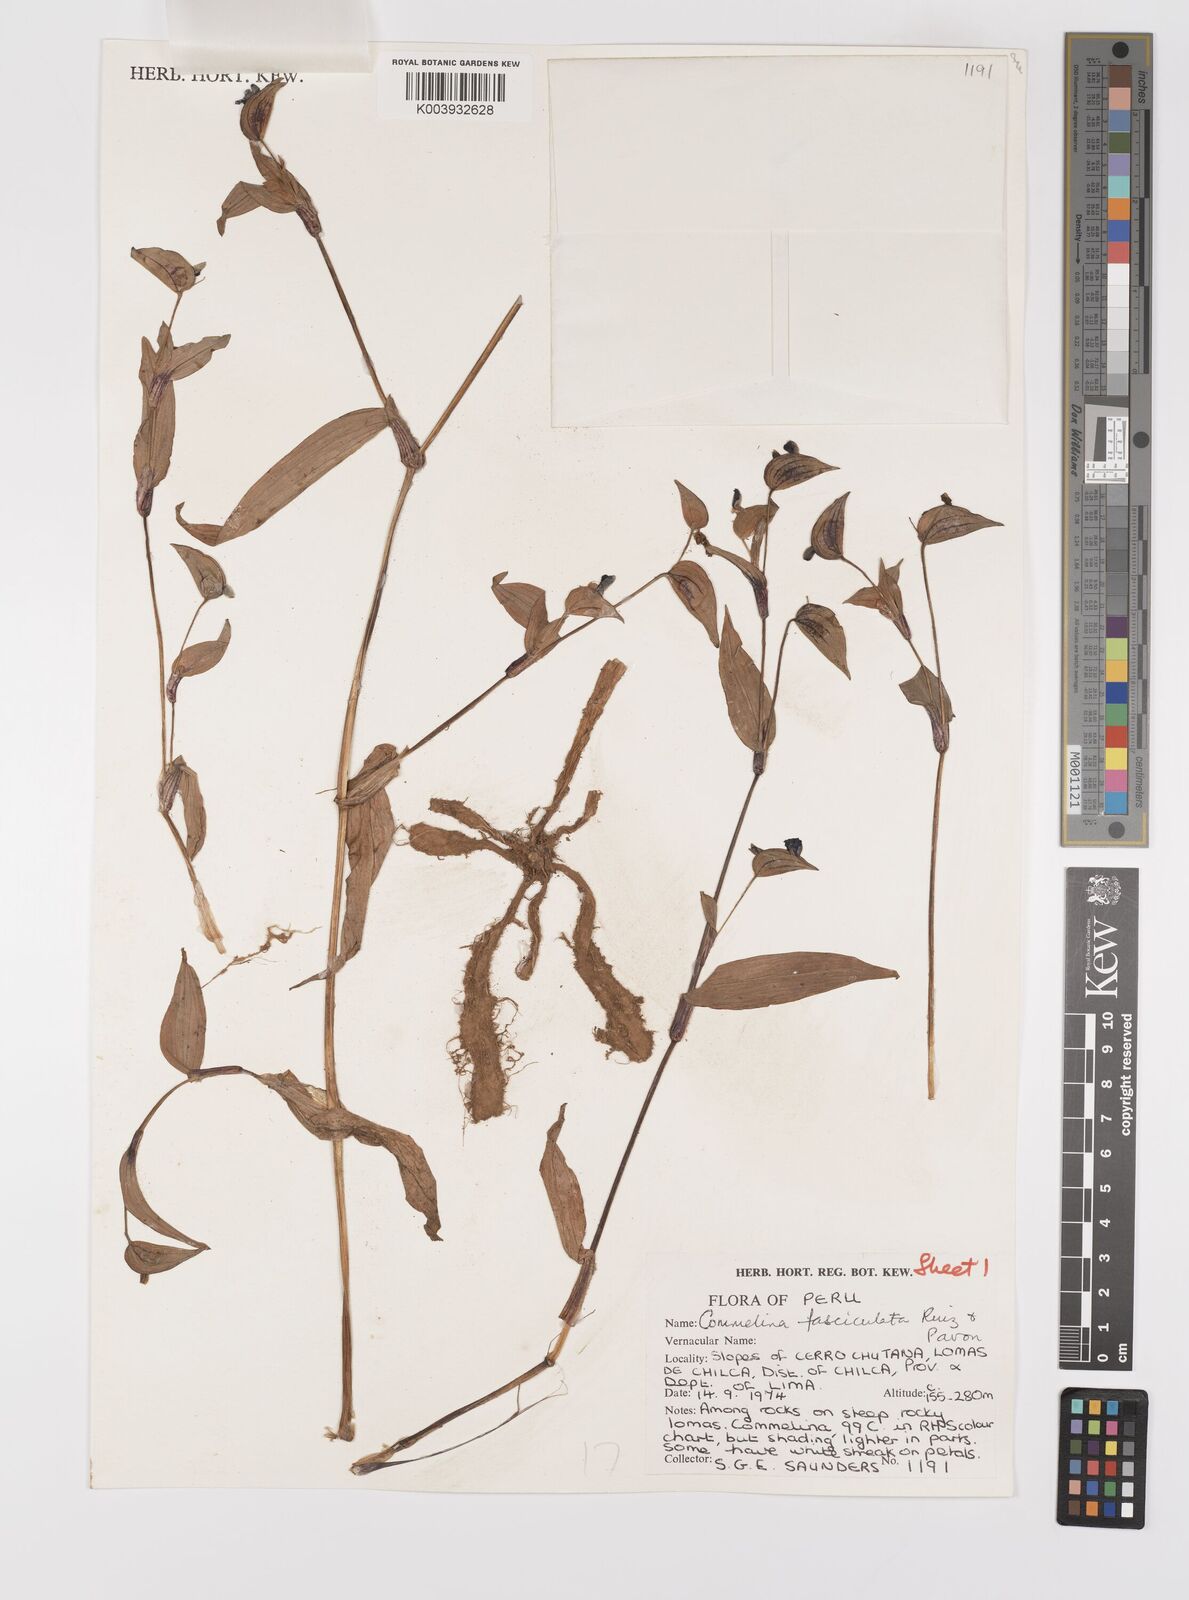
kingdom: Plantae
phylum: Tracheophyta
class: Liliopsida
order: Commelinales
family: Commelinaceae
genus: Commelina
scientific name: Commelina tuberosa
